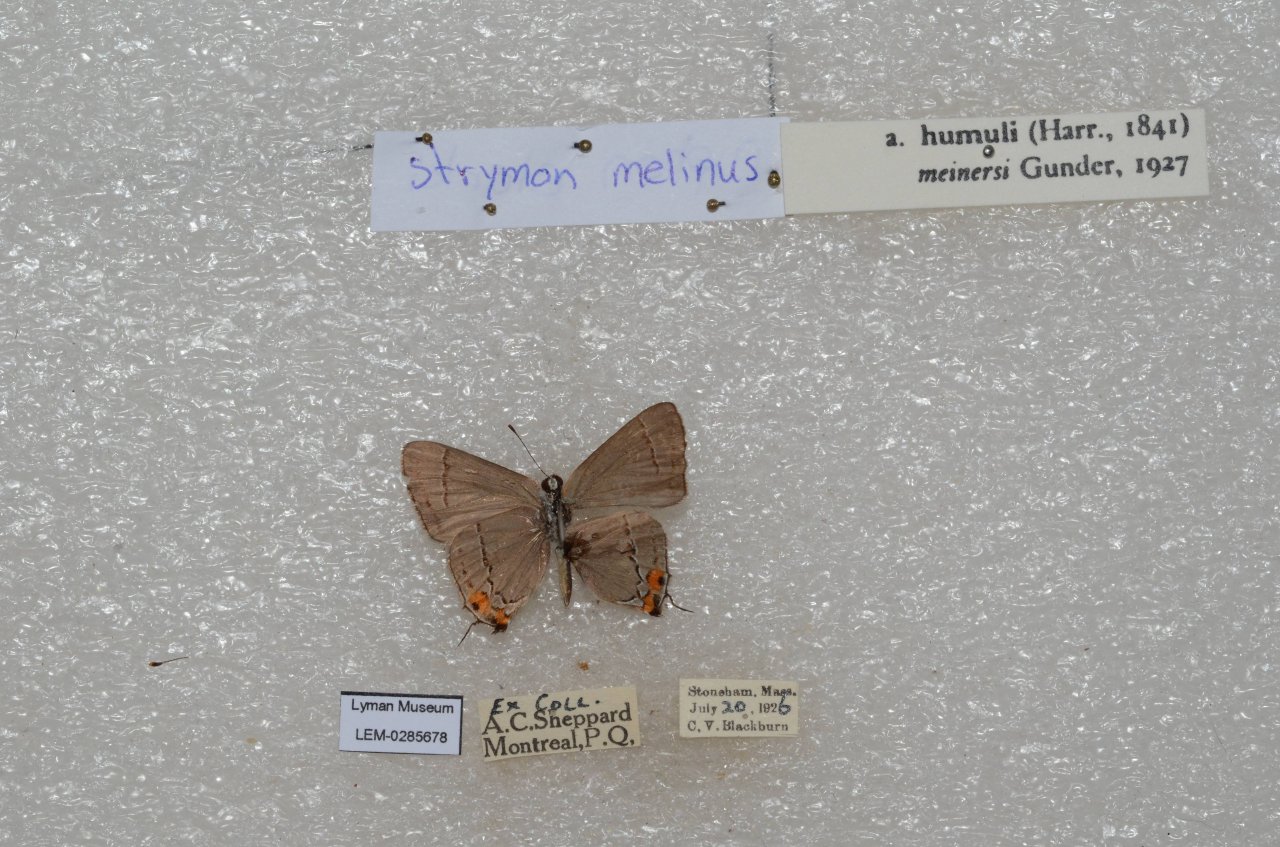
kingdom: Animalia
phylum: Arthropoda
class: Insecta
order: Lepidoptera
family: Lycaenidae
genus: Strymon
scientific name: Strymon melinus
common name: Gray Hairstreak
